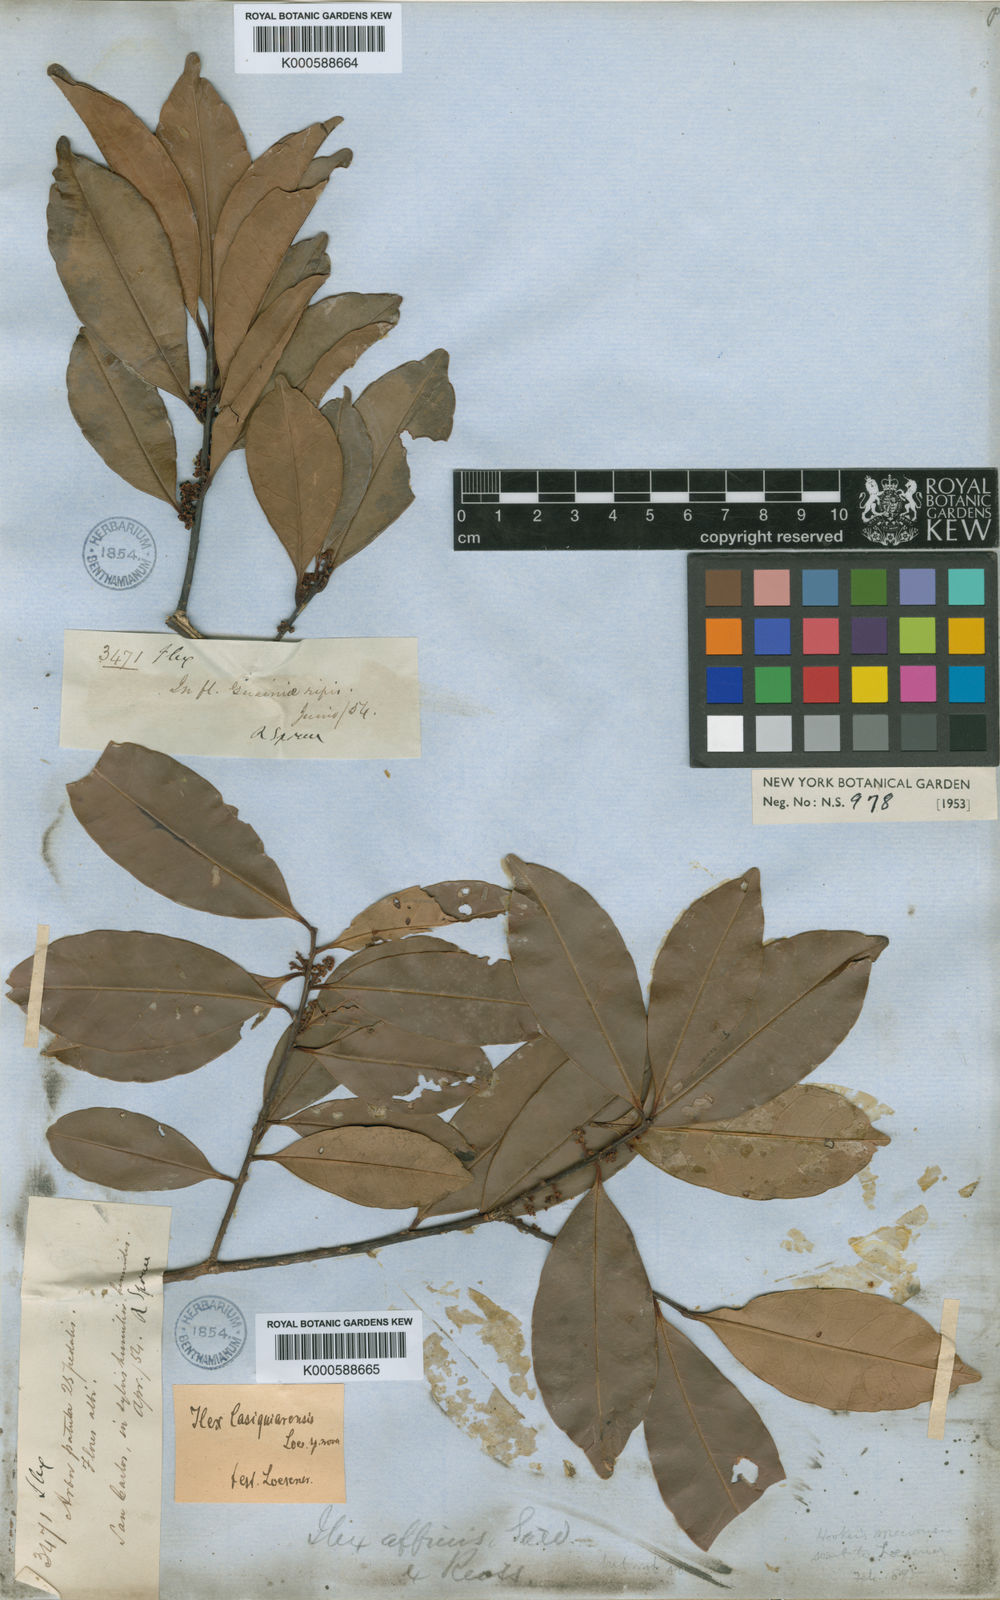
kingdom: Plantae
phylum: Tracheophyta
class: Magnoliopsida
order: Aquifoliales
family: Aquifoliaceae
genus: Ilex
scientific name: Ilex casiquiarensis
